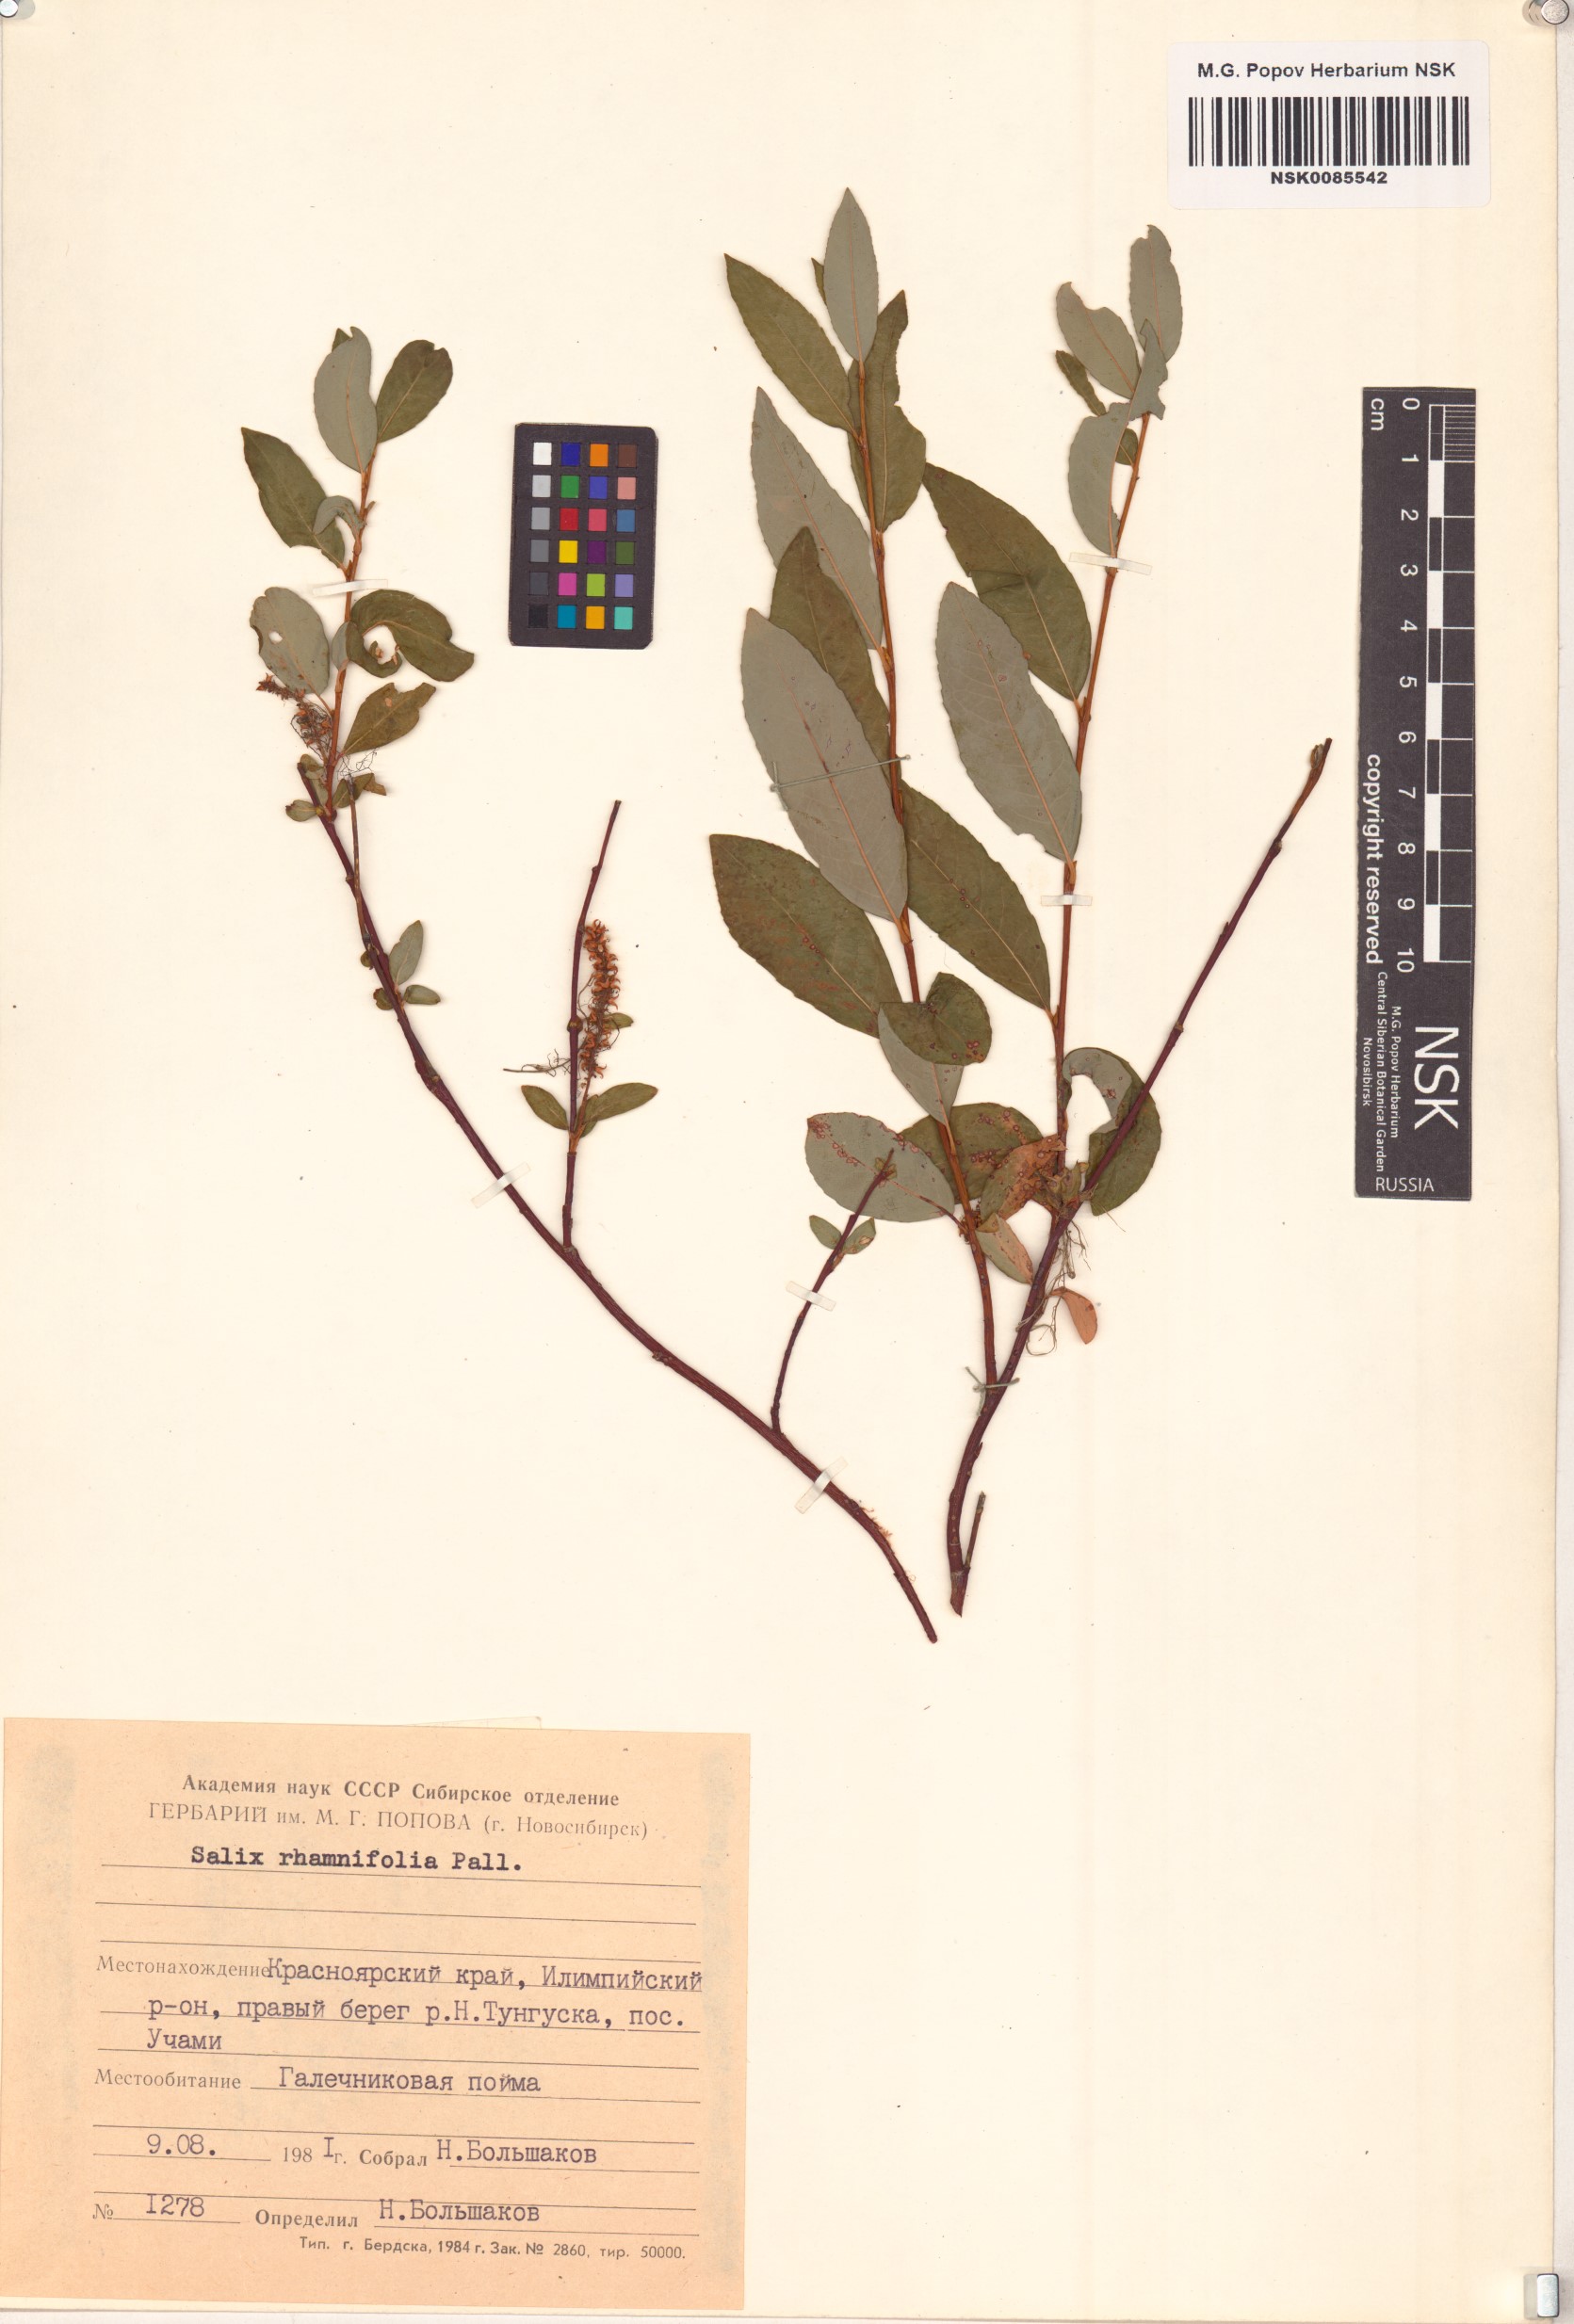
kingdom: Plantae
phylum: Tracheophyta
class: Magnoliopsida
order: Malpighiales
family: Salicaceae
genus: Salix
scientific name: Salix rhamnifolia
